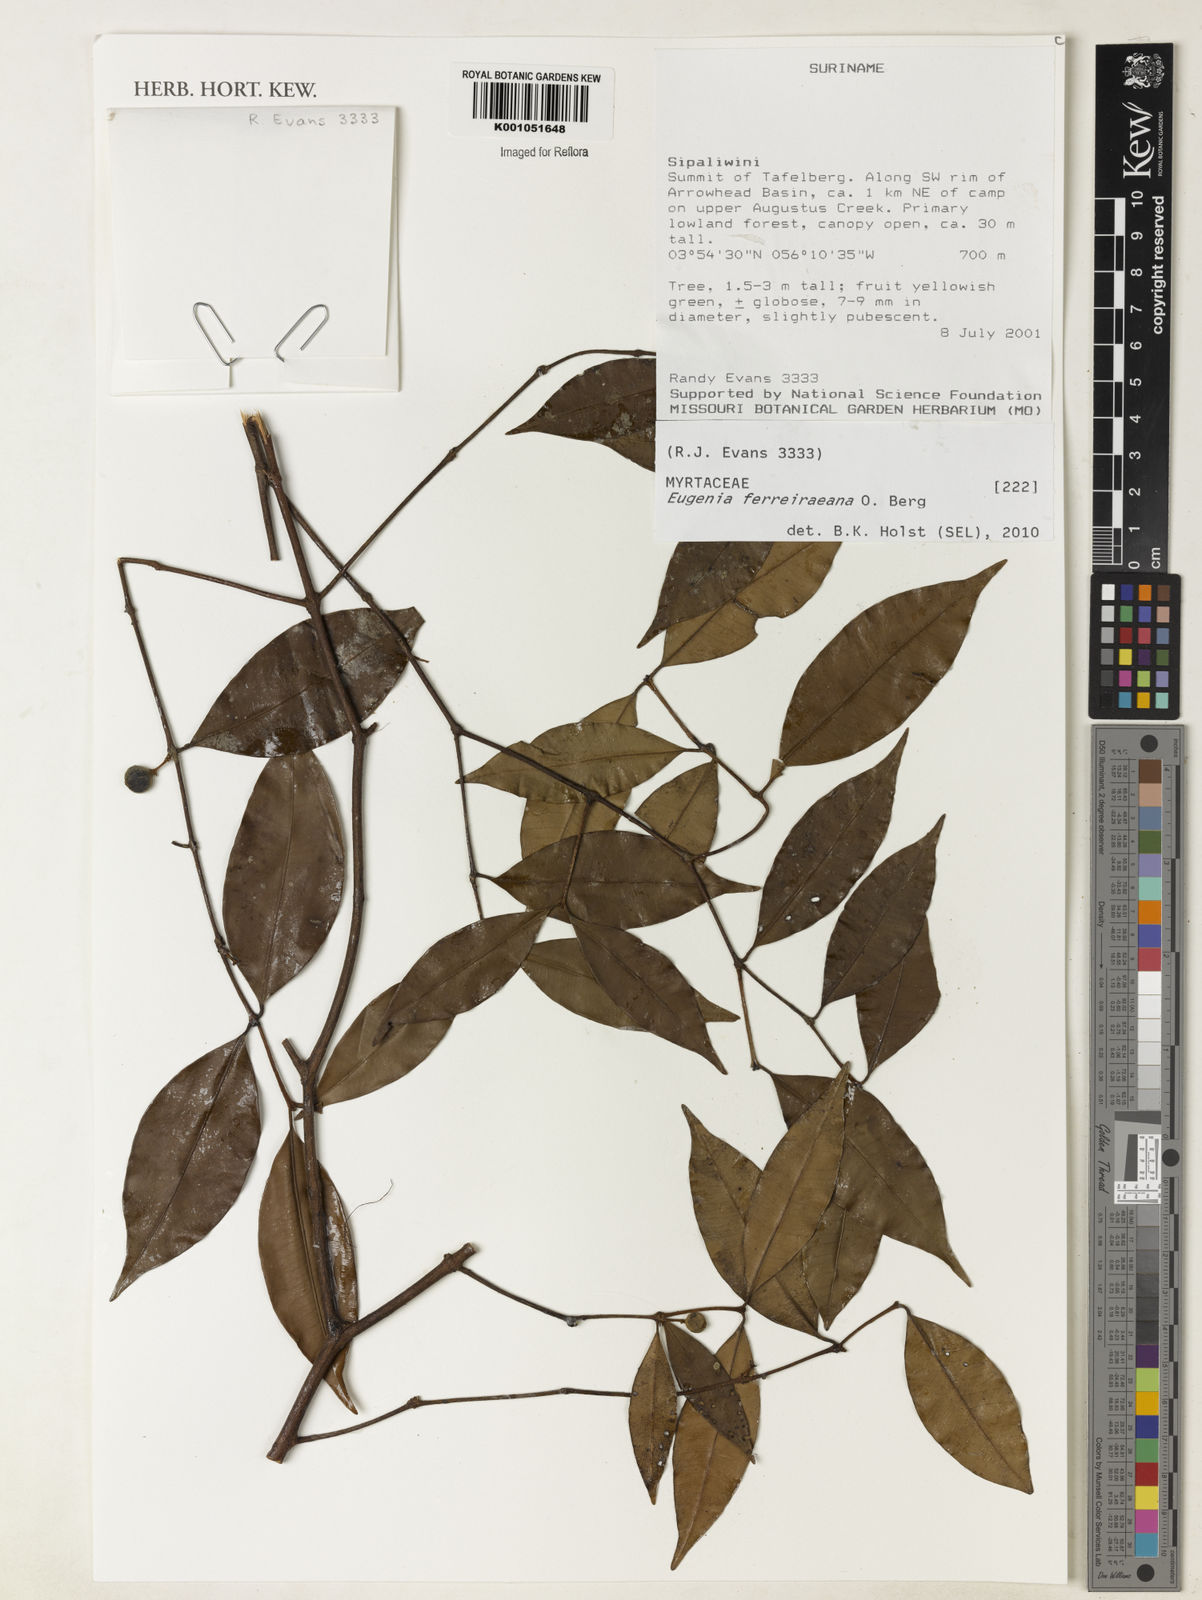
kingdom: Plantae
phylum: Tracheophyta
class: Magnoliopsida
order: Myrtales
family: Myrtaceae
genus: Eugenia
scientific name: Eugenia ferreiraeana
